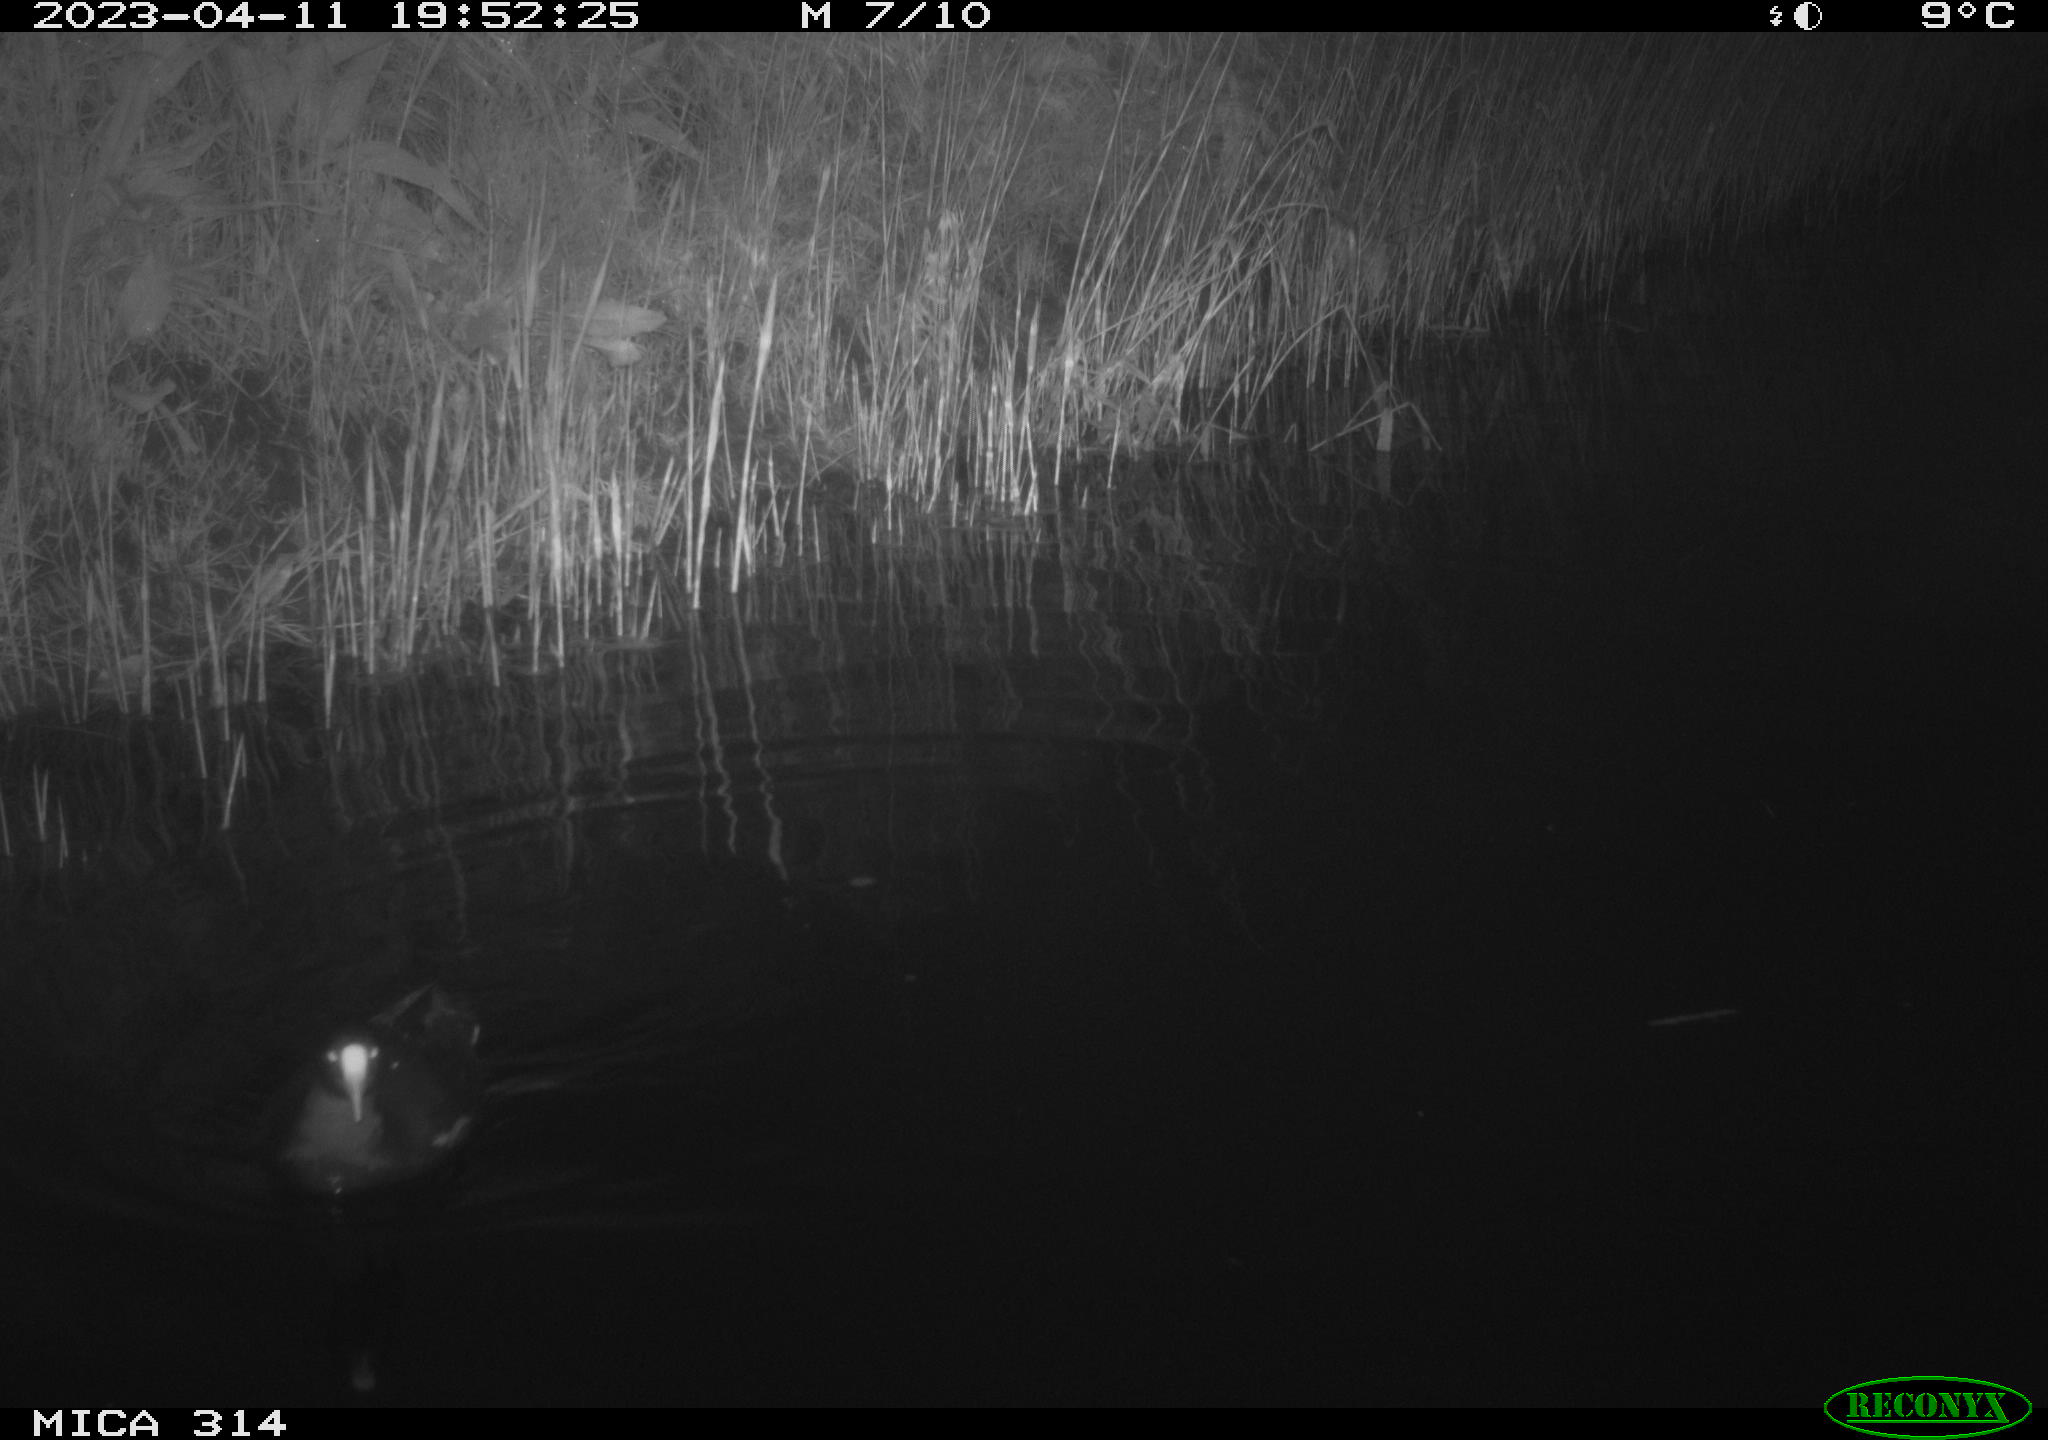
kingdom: Animalia
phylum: Chordata
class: Aves
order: Gruiformes
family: Rallidae
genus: Gallinula
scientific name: Gallinula chloropus
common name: Common moorhen
